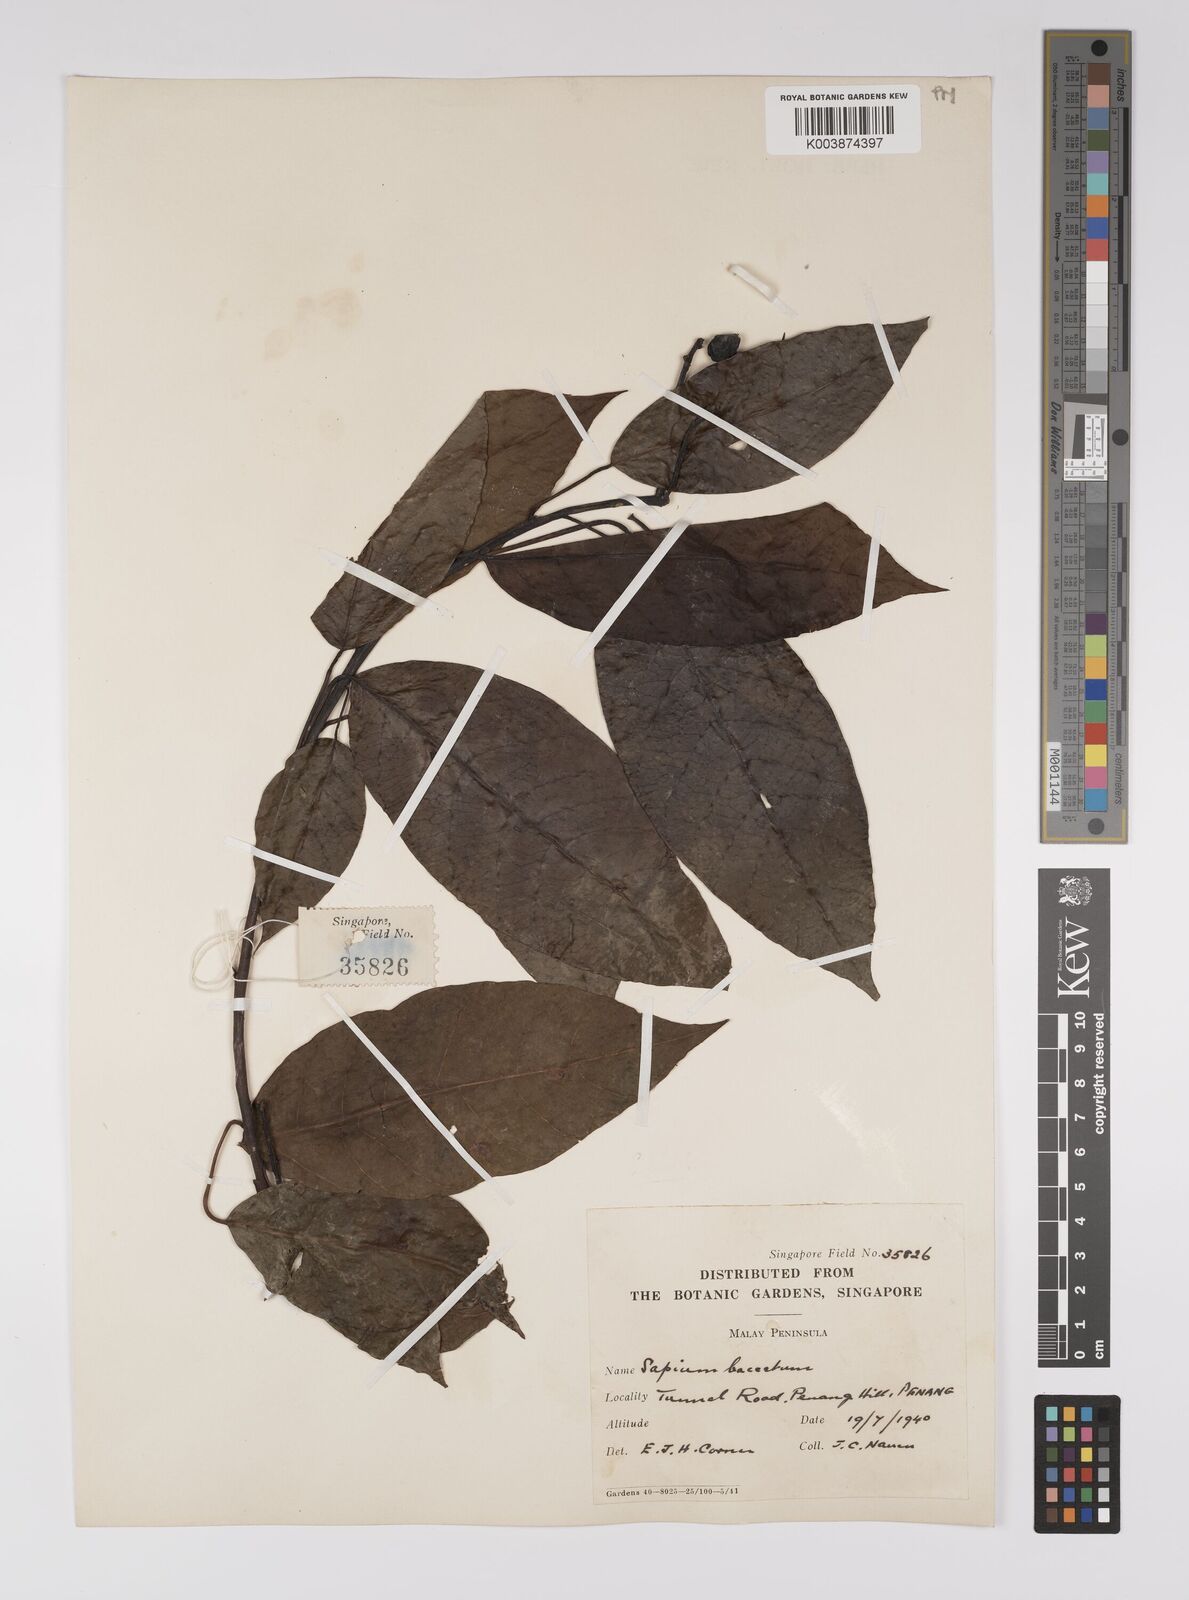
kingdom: Plantae
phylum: Tracheophyta
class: Magnoliopsida
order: Malpighiales
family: Euphorbiaceae
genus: Balakata
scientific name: Balakata baccata
